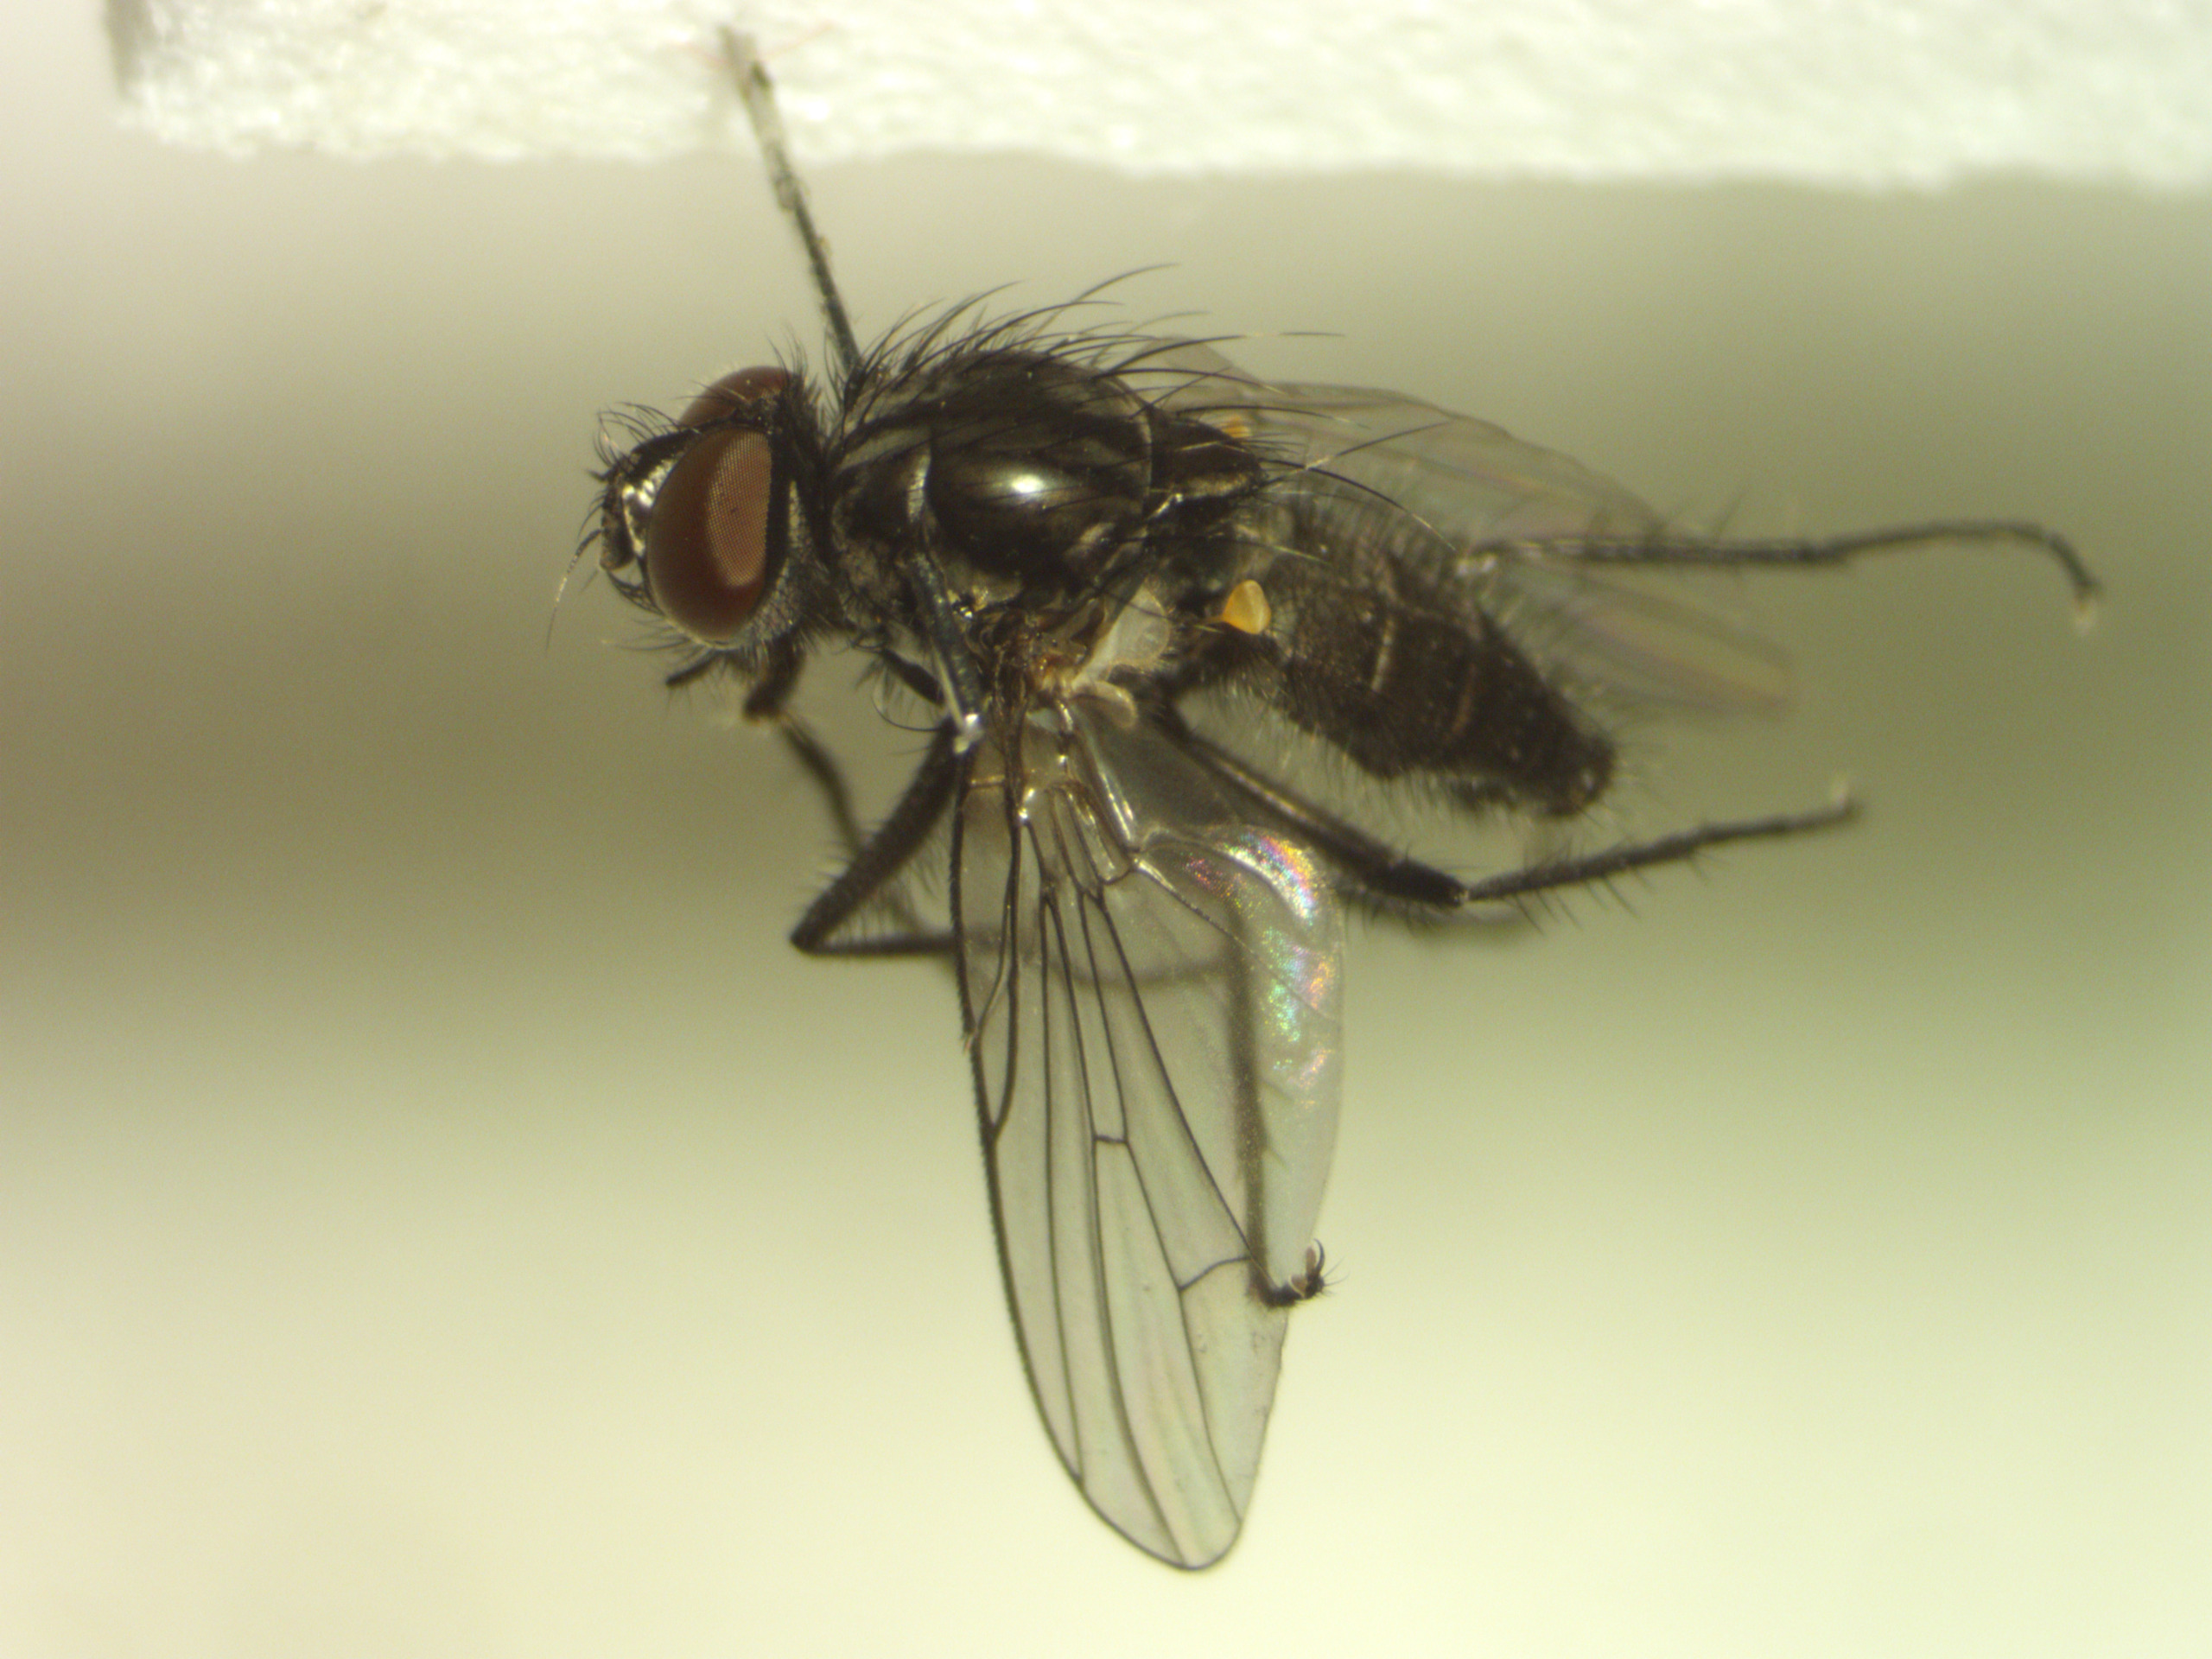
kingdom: Animalia
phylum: Arthropoda
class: Insecta
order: Diptera
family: Anthomyiidae
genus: Botanophila
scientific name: Botanophila striolata
